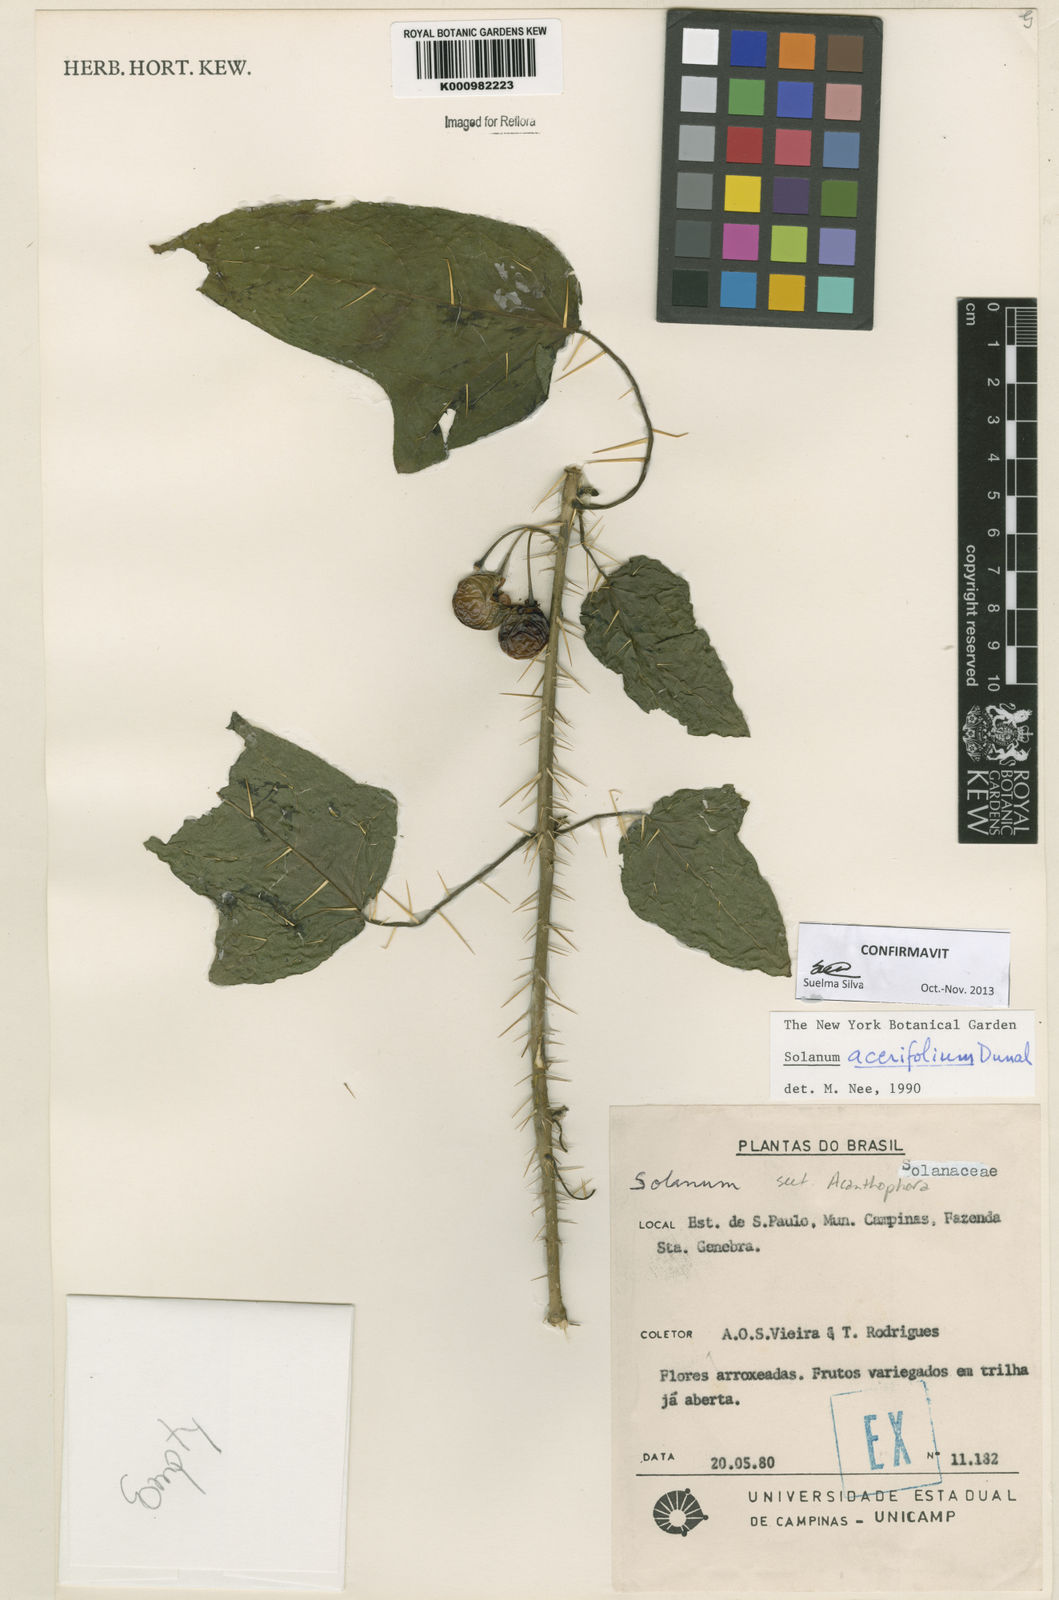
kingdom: Plantae
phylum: Tracheophyta
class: Magnoliopsida
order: Solanales
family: Solanaceae
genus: Solanum
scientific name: Solanum acerifolium
